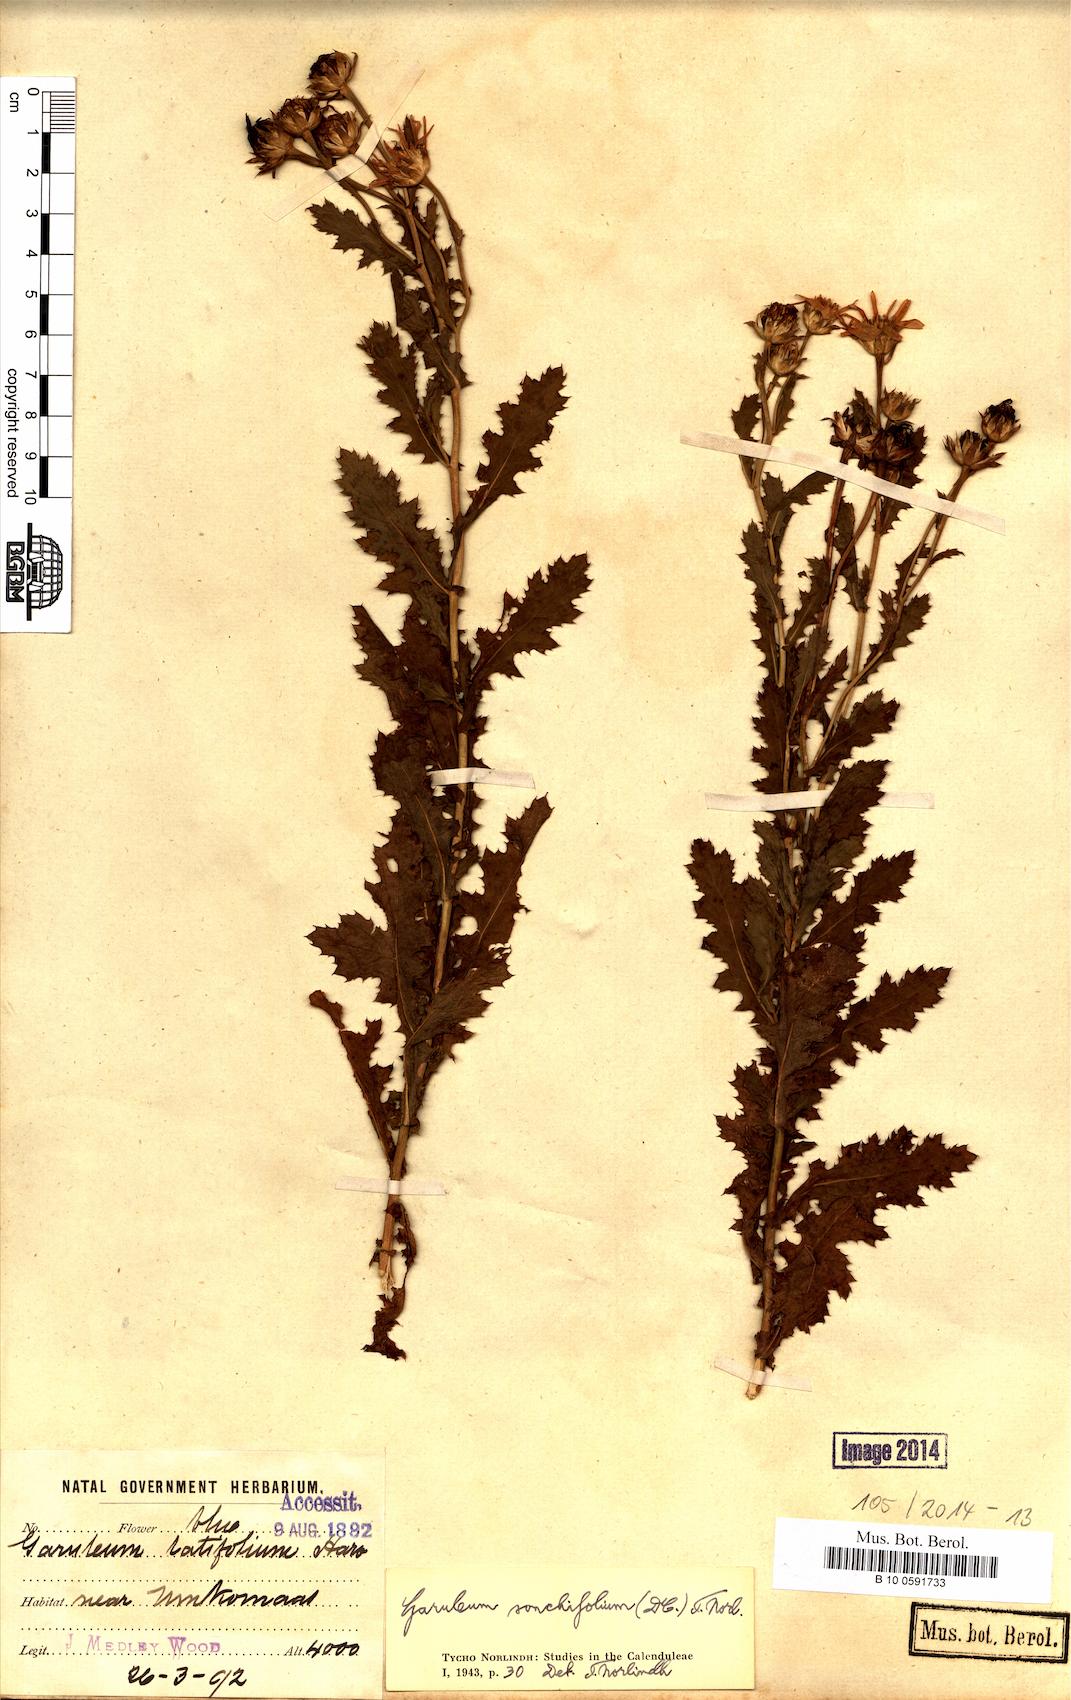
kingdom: Plantae
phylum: Tracheophyta
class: Magnoliopsida
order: Asterales
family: Asteraceae
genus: Garuleum
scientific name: Garuleum sonchifolium
